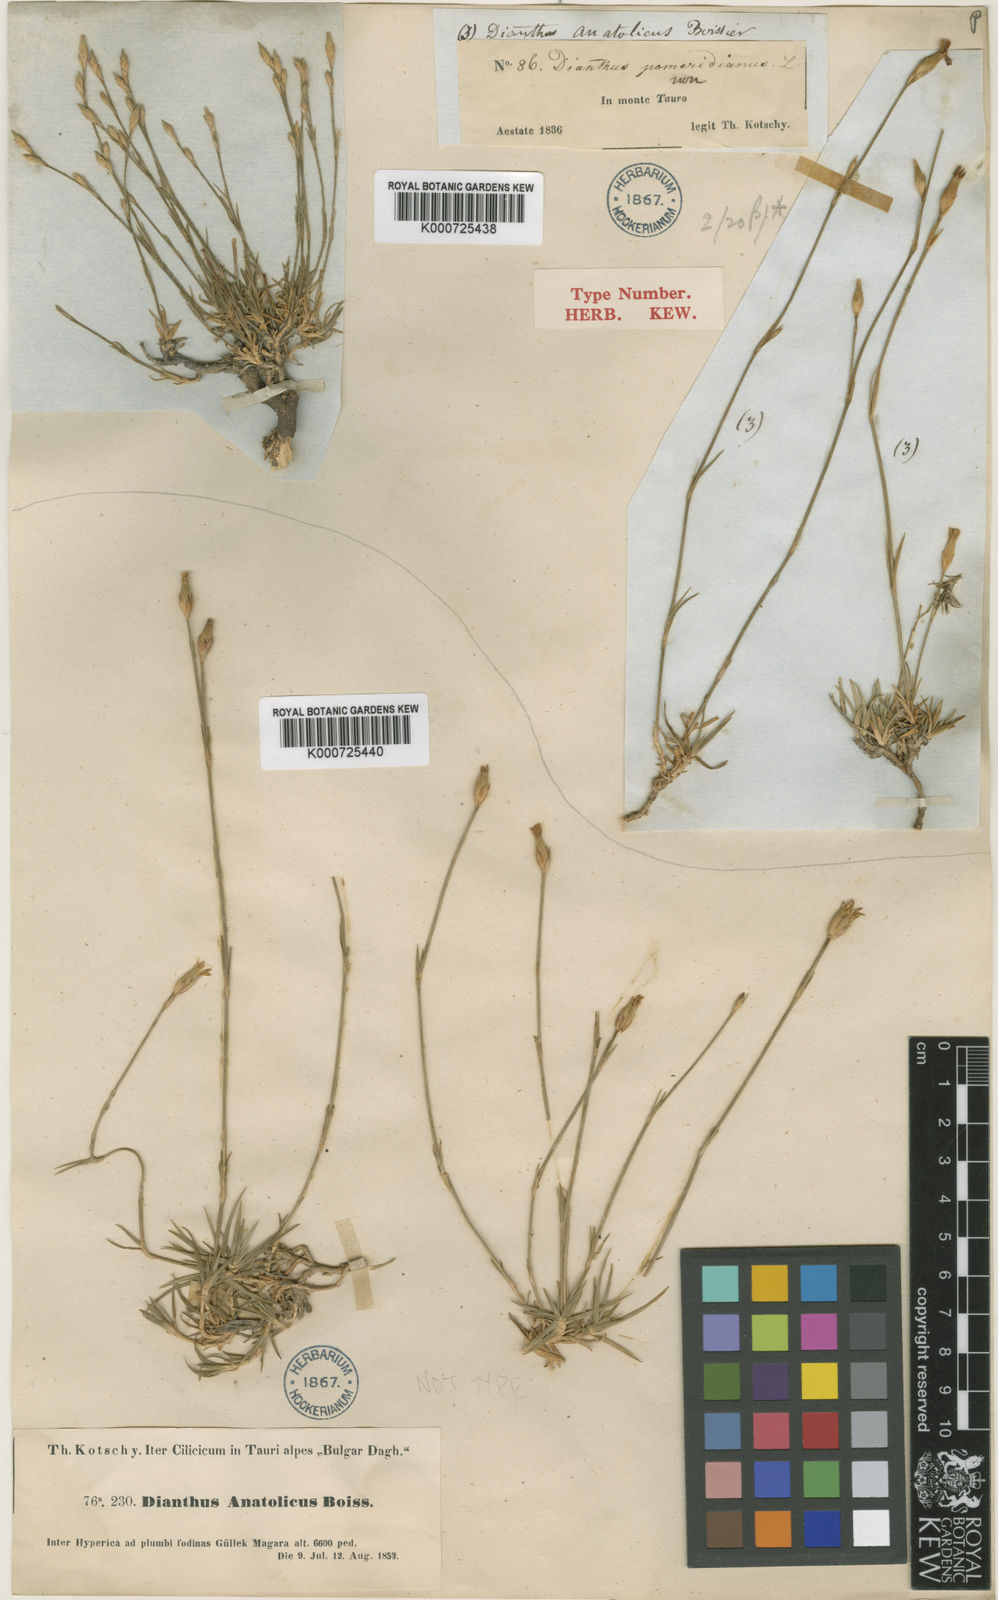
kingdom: Plantae
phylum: Tracheophyta
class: Magnoliopsida
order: Caryophyllales
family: Caryophyllaceae
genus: Dianthus
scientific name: Dianthus arpadianus
